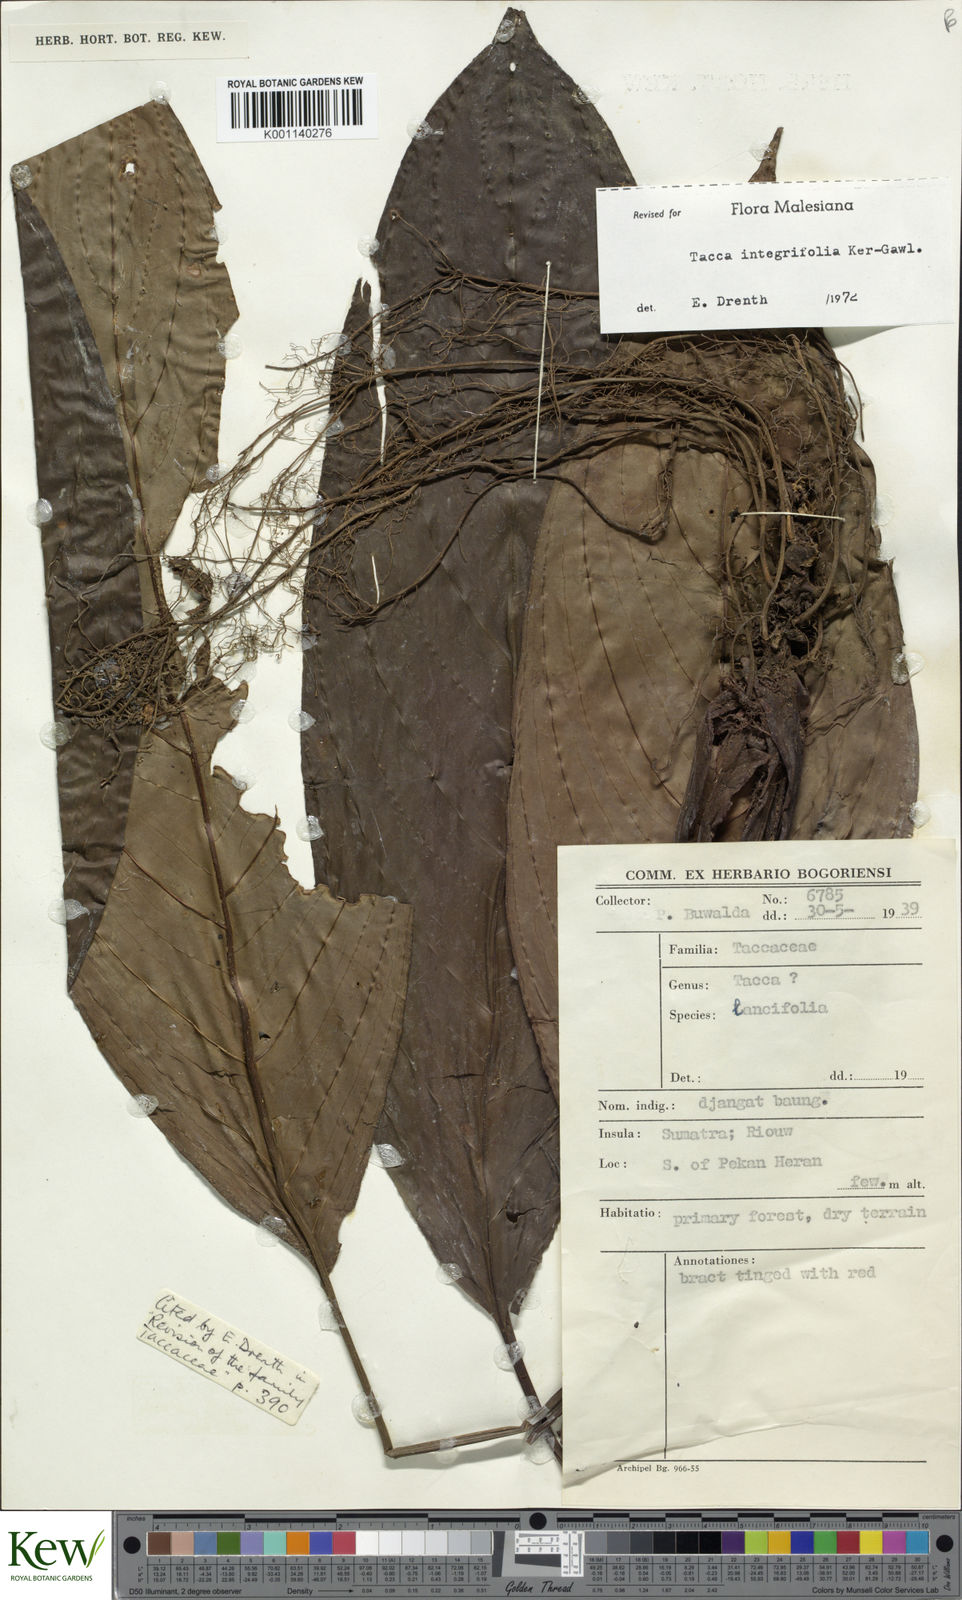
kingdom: Plantae
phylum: Tracheophyta
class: Liliopsida
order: Dioscoreales
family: Dioscoreaceae
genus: Tacca
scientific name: Tacca integrifolia
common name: Batplant
